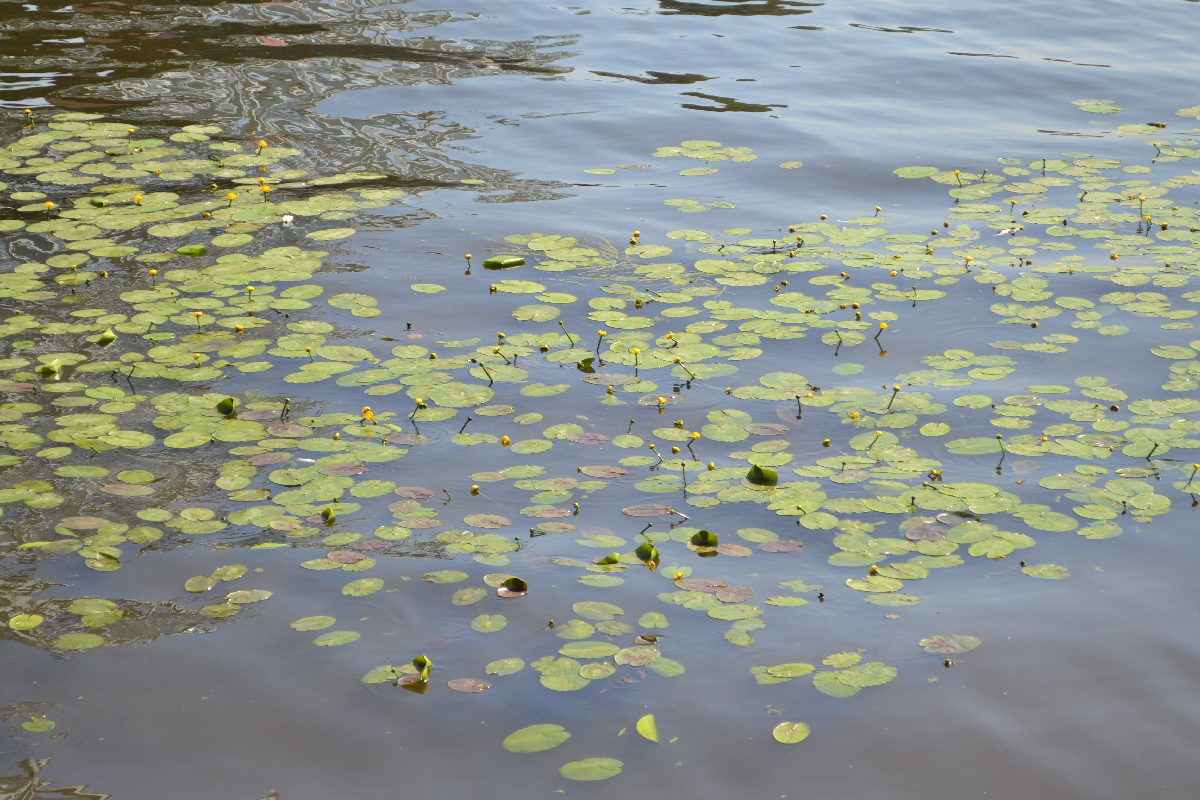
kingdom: Plantae
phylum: Tracheophyta
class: Magnoliopsida
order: Nymphaeales
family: Nymphaeaceae
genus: Nuphar
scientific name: Nuphar lutea
